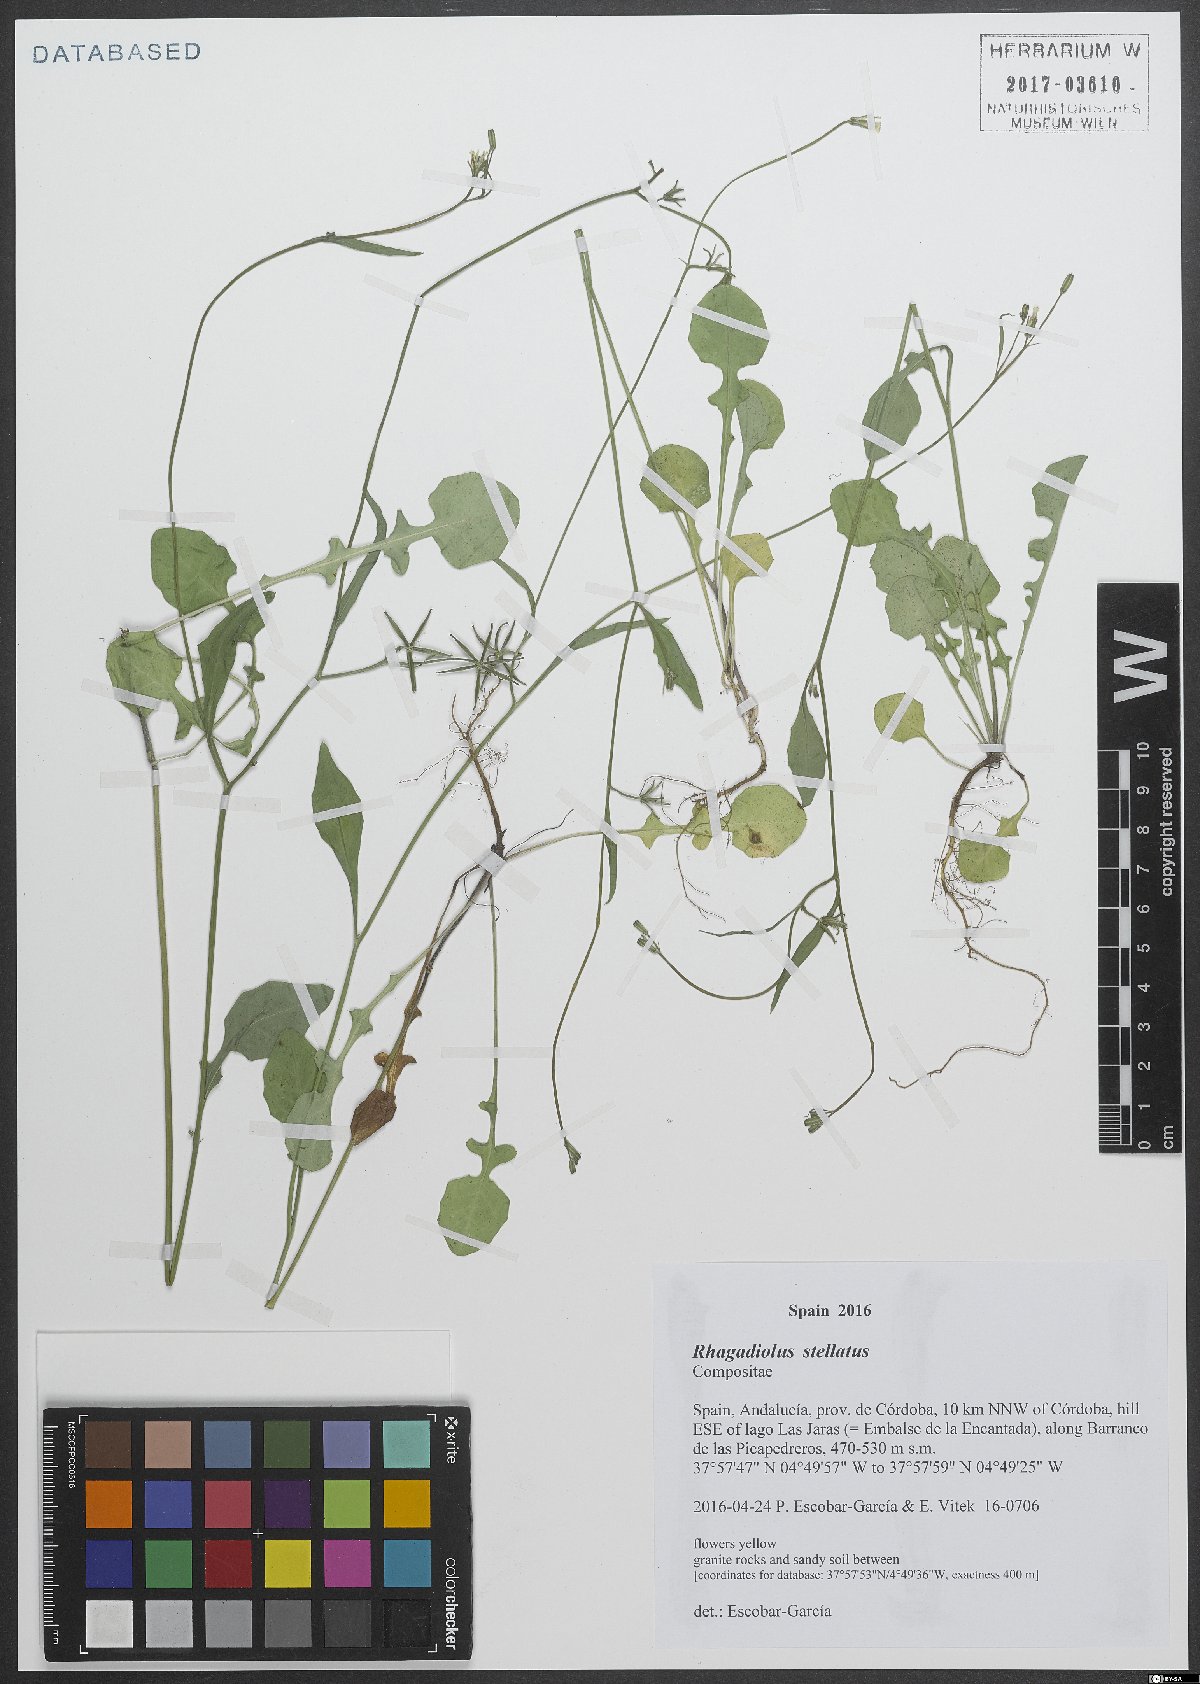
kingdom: Plantae
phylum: Tracheophyta
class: Magnoliopsida
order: Asterales
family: Asteraceae
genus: Rhagadiolus
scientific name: Rhagadiolus stellatus
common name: Star hawkbit
